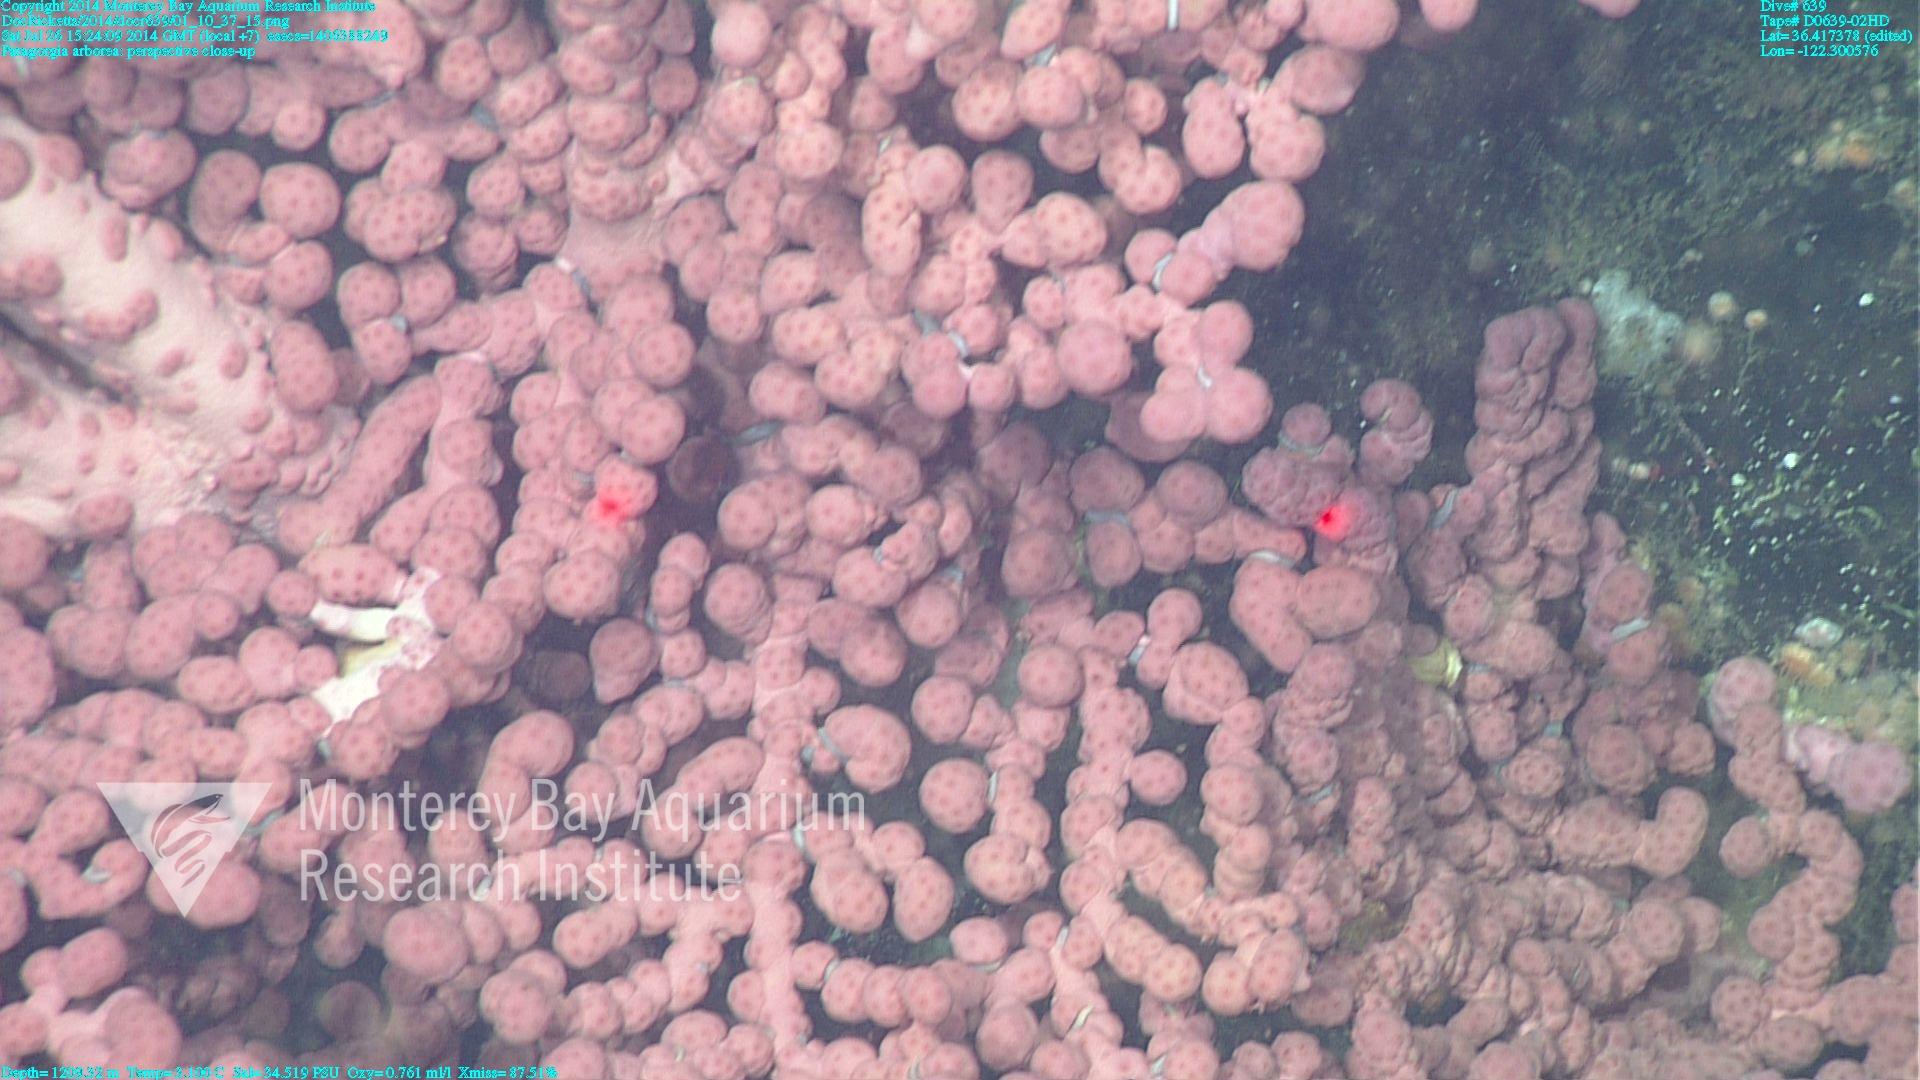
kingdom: Animalia
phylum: Cnidaria
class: Anthozoa
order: Scleralcyonacea
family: Coralliidae
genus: Paragorgia
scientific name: Paragorgia arborea
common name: Bubble gum coral
